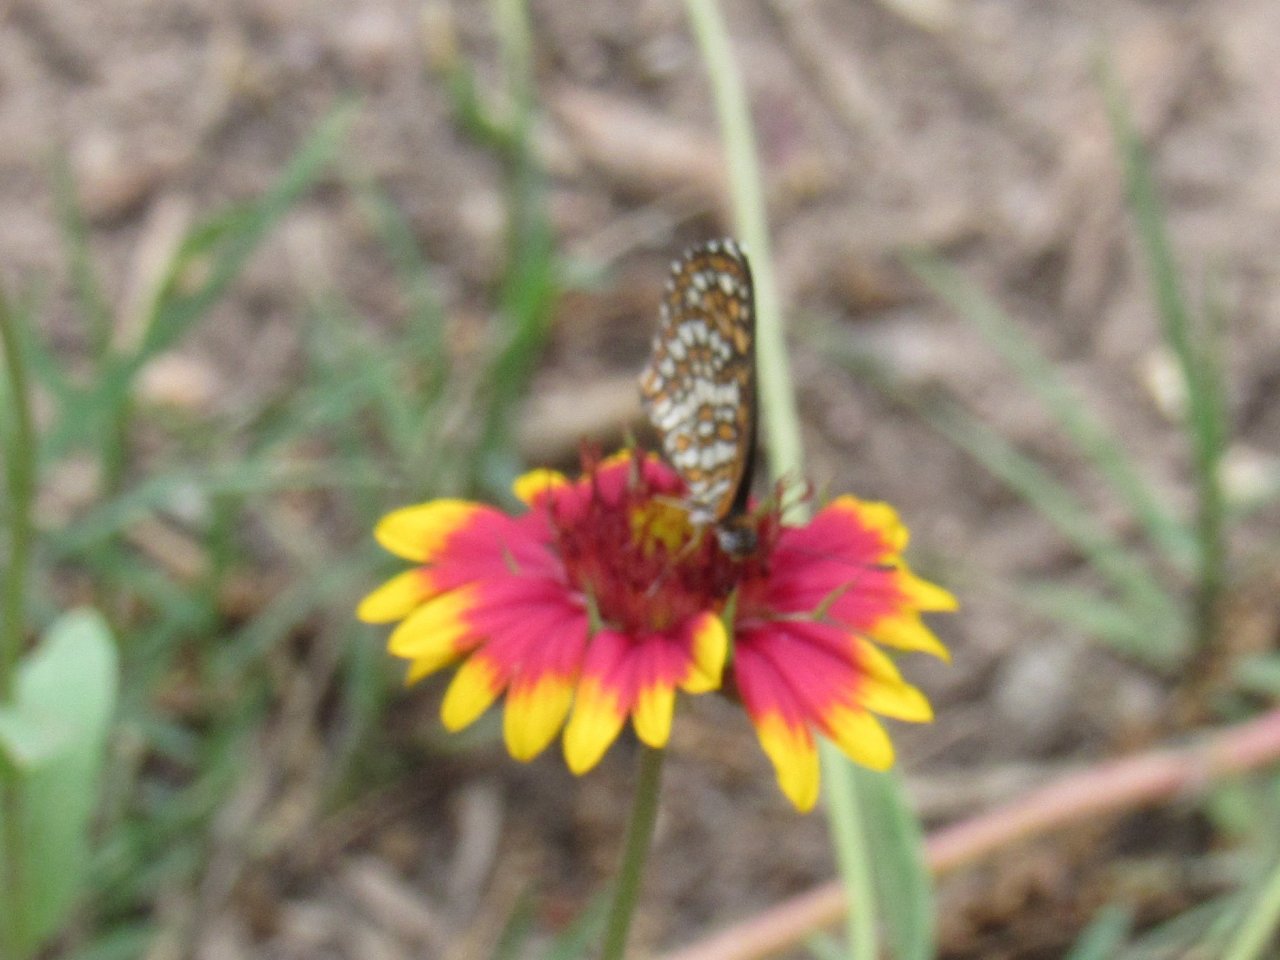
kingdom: Animalia
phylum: Arthropoda
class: Insecta
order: Lepidoptera
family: Nymphalidae
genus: Dymasia
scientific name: Dymasia dymas
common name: Tiny Checkerspot
